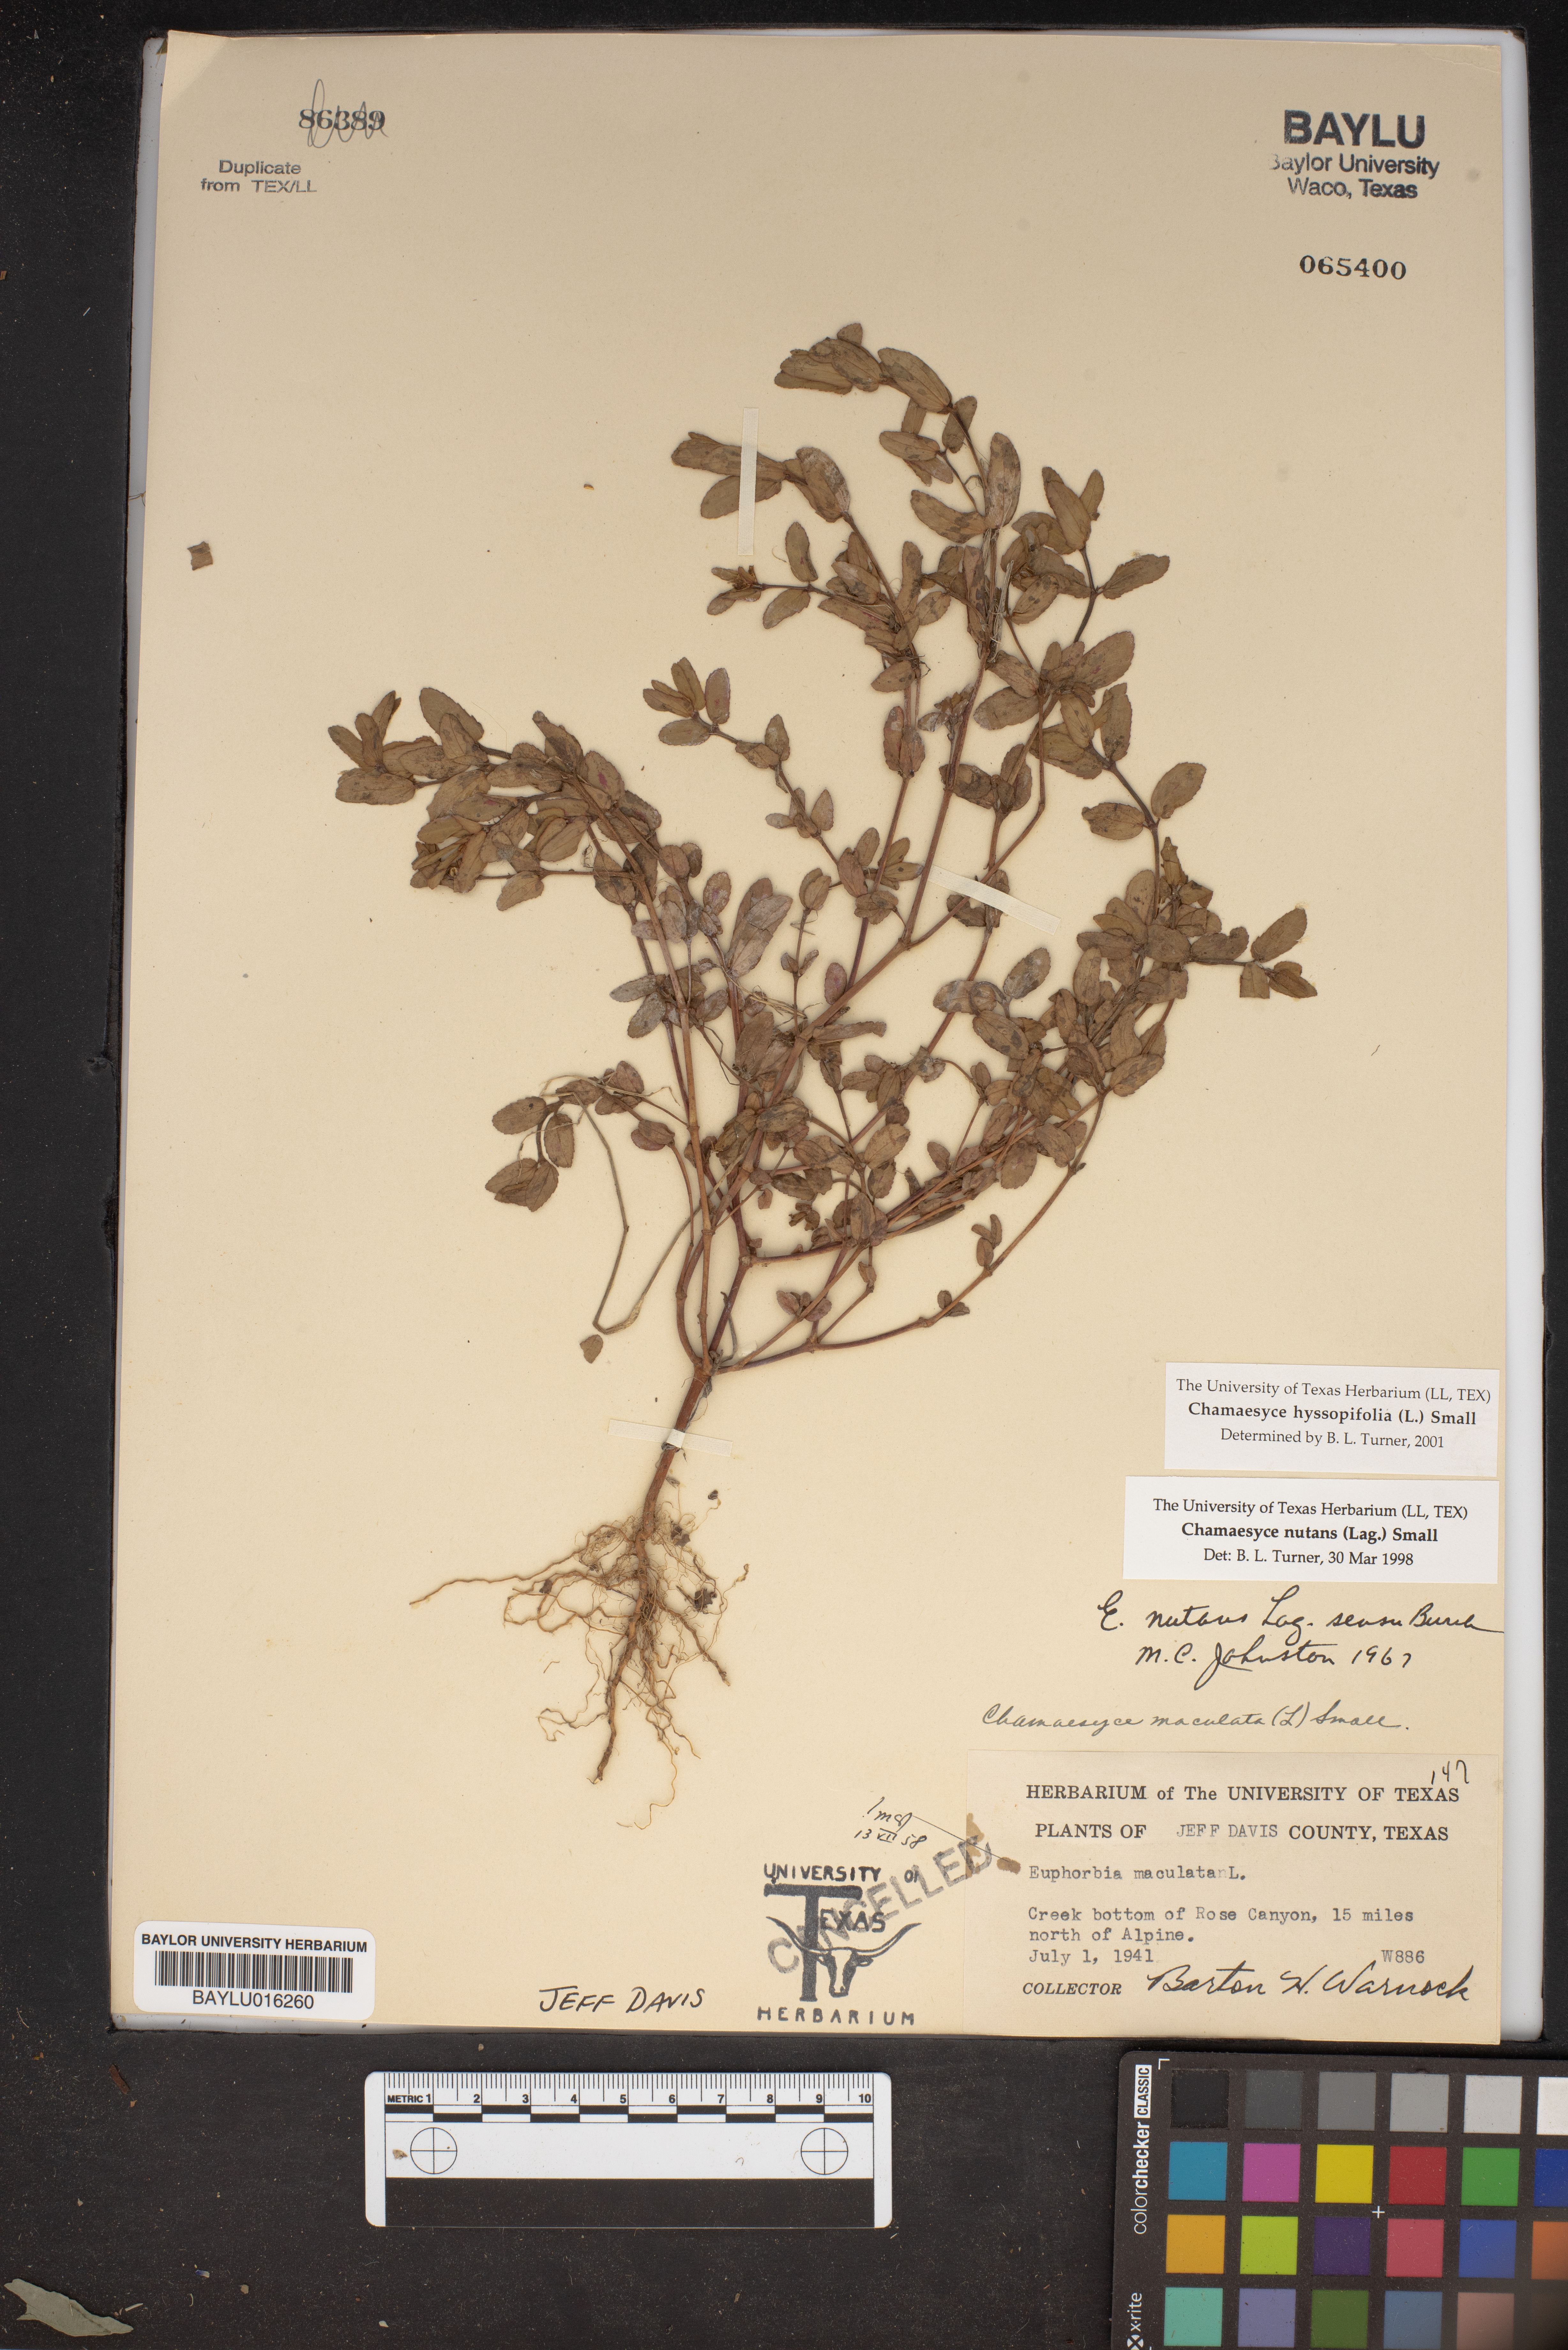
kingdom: Plantae
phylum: Tracheophyta
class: Magnoliopsida
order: Malpighiales
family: Euphorbiaceae
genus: Euphorbia
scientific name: Euphorbia hyssopifolia
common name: Hyssopleaf sandmat
